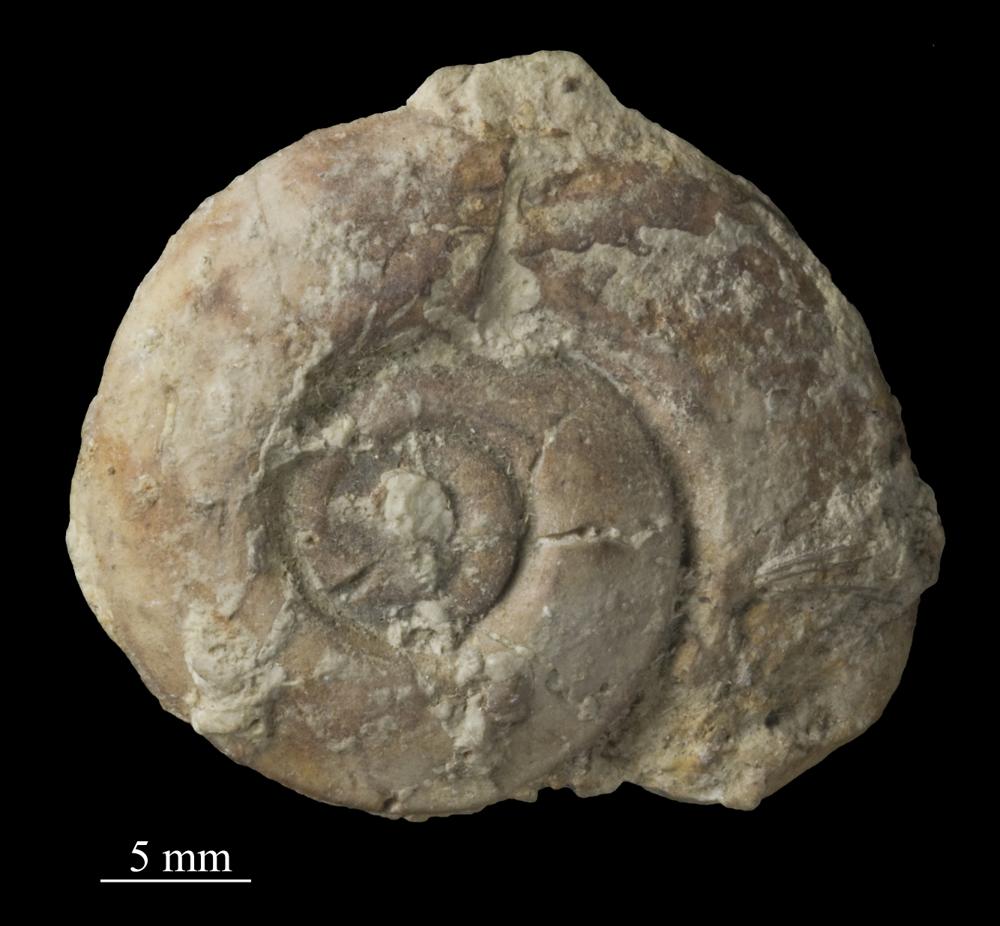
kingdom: Animalia
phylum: Mollusca
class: Gastropoda
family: Bellerophontidae
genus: Cymbularia
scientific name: Cymbularia lenticularis
